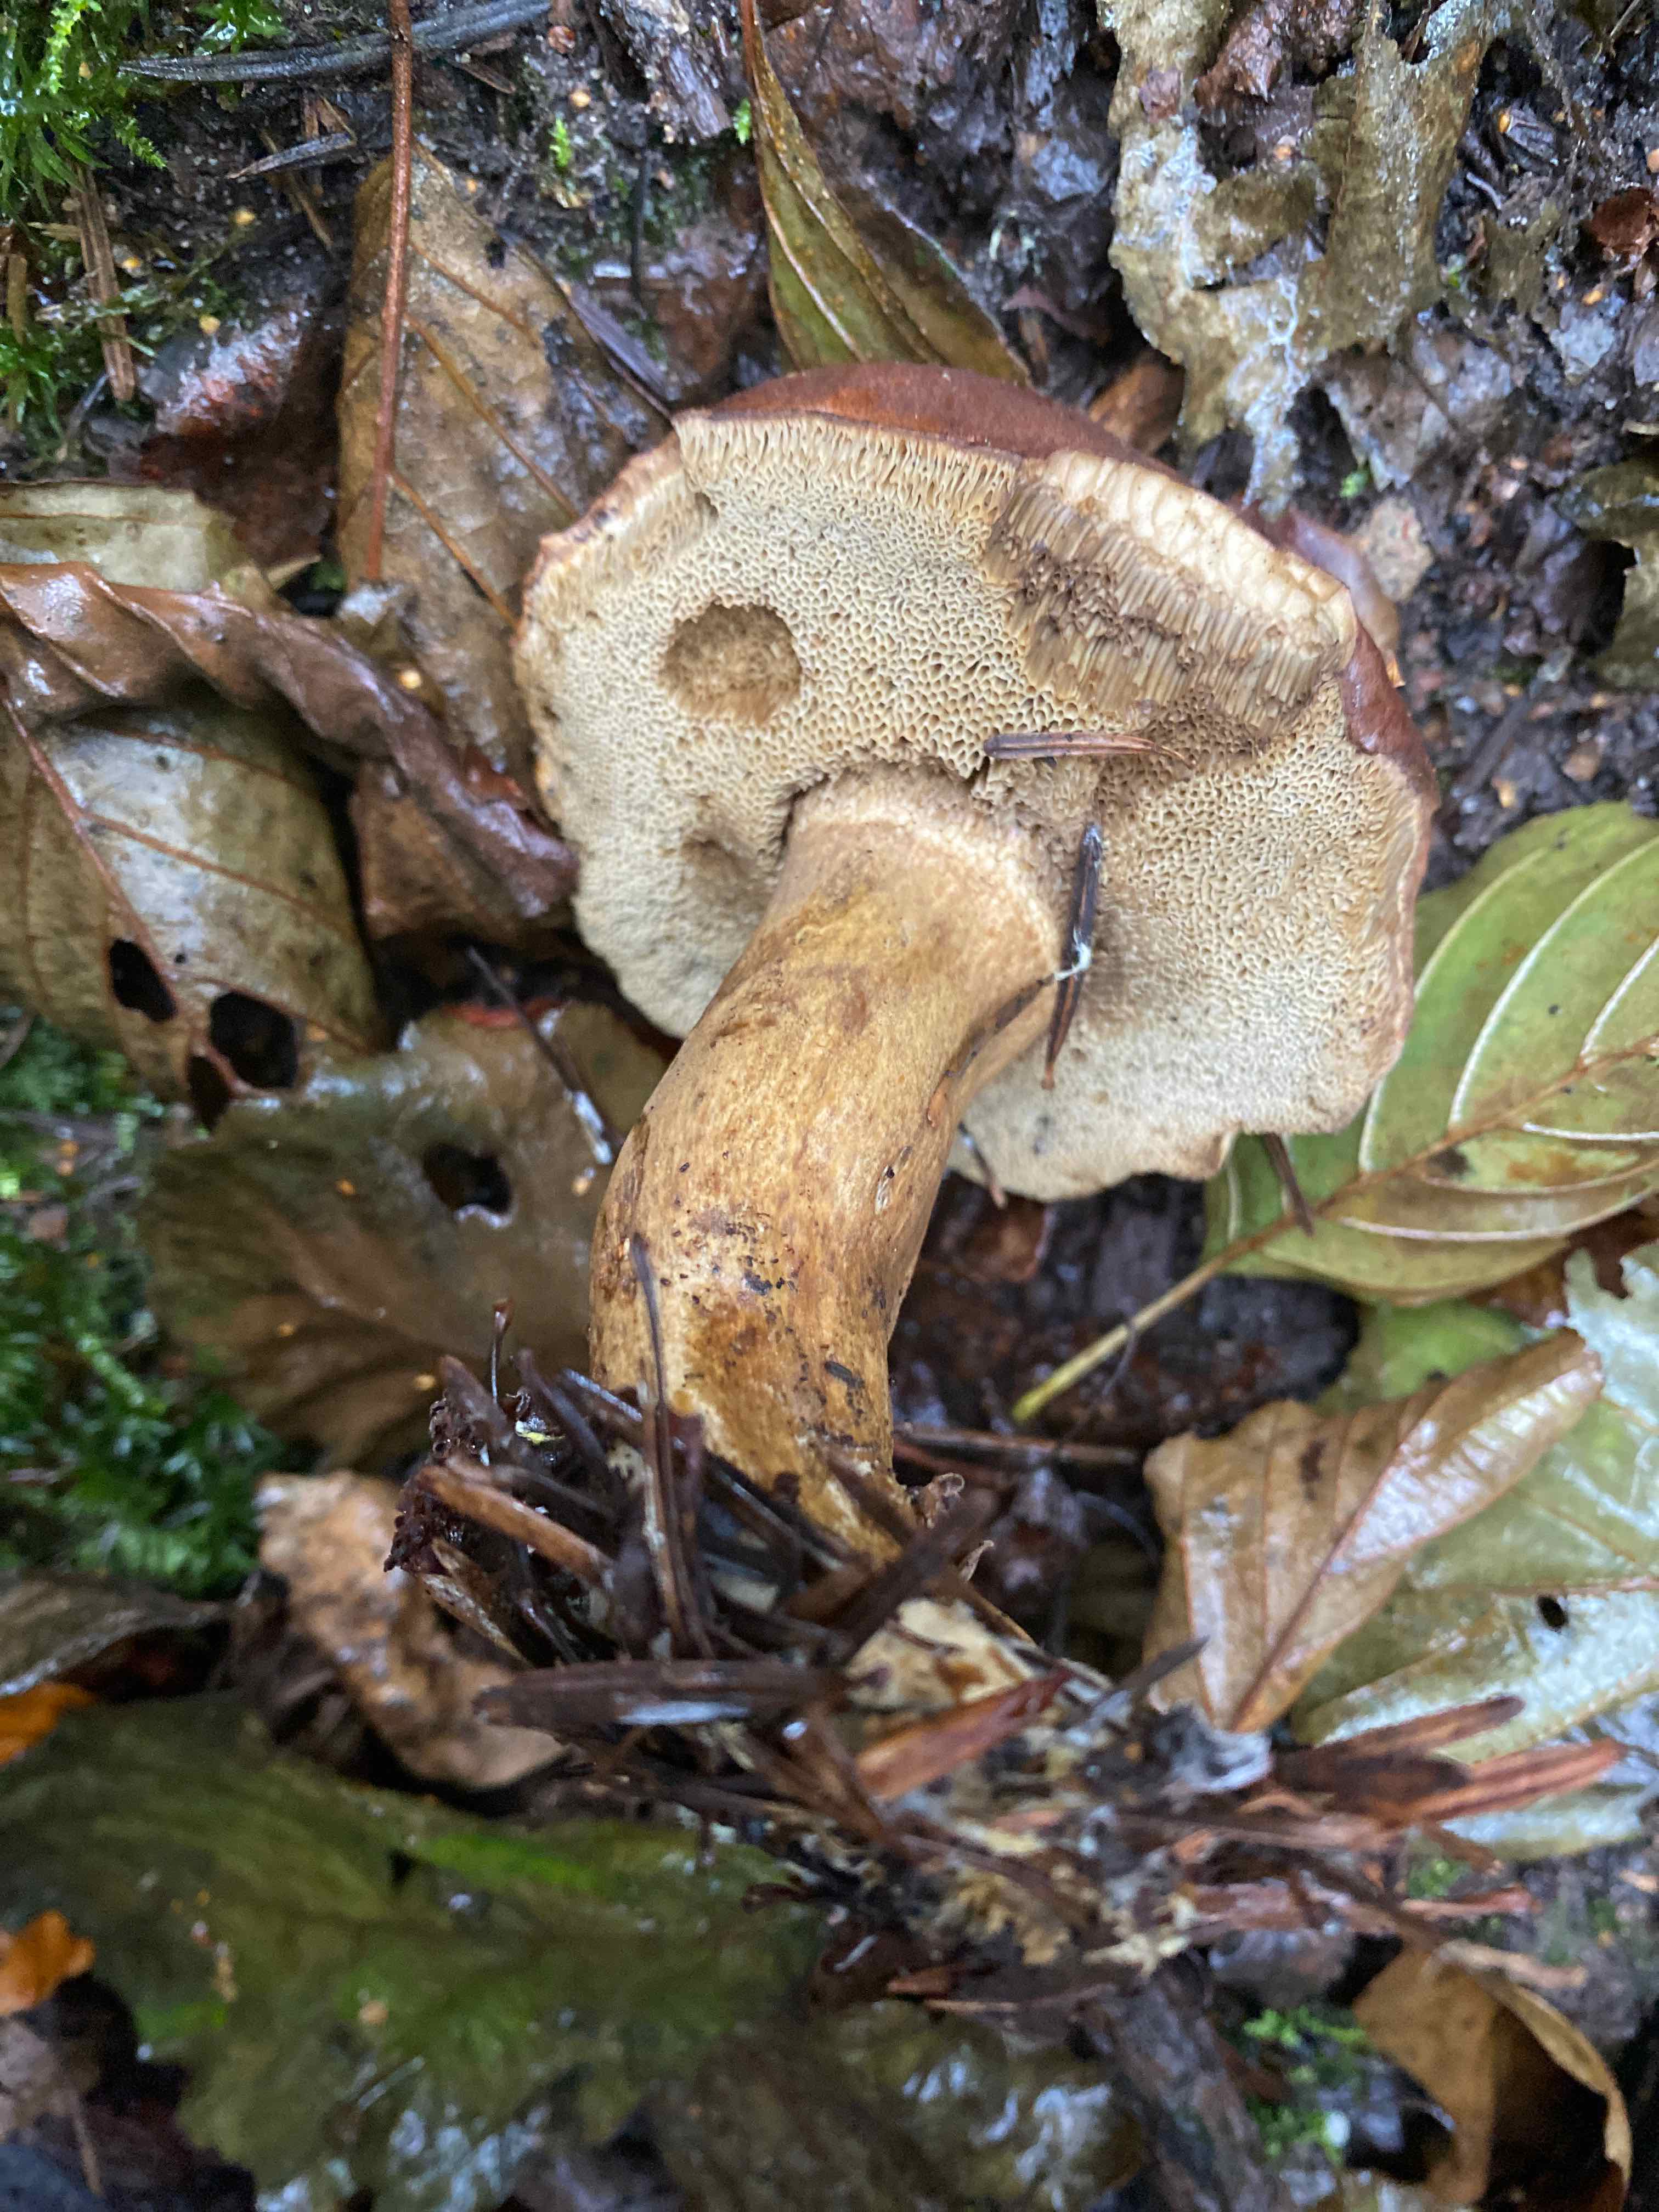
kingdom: Fungi
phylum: Basidiomycota
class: Agaricomycetes
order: Boletales
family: Boletaceae
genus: Imleria
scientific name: Imleria badia
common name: brunstokket rørhat
